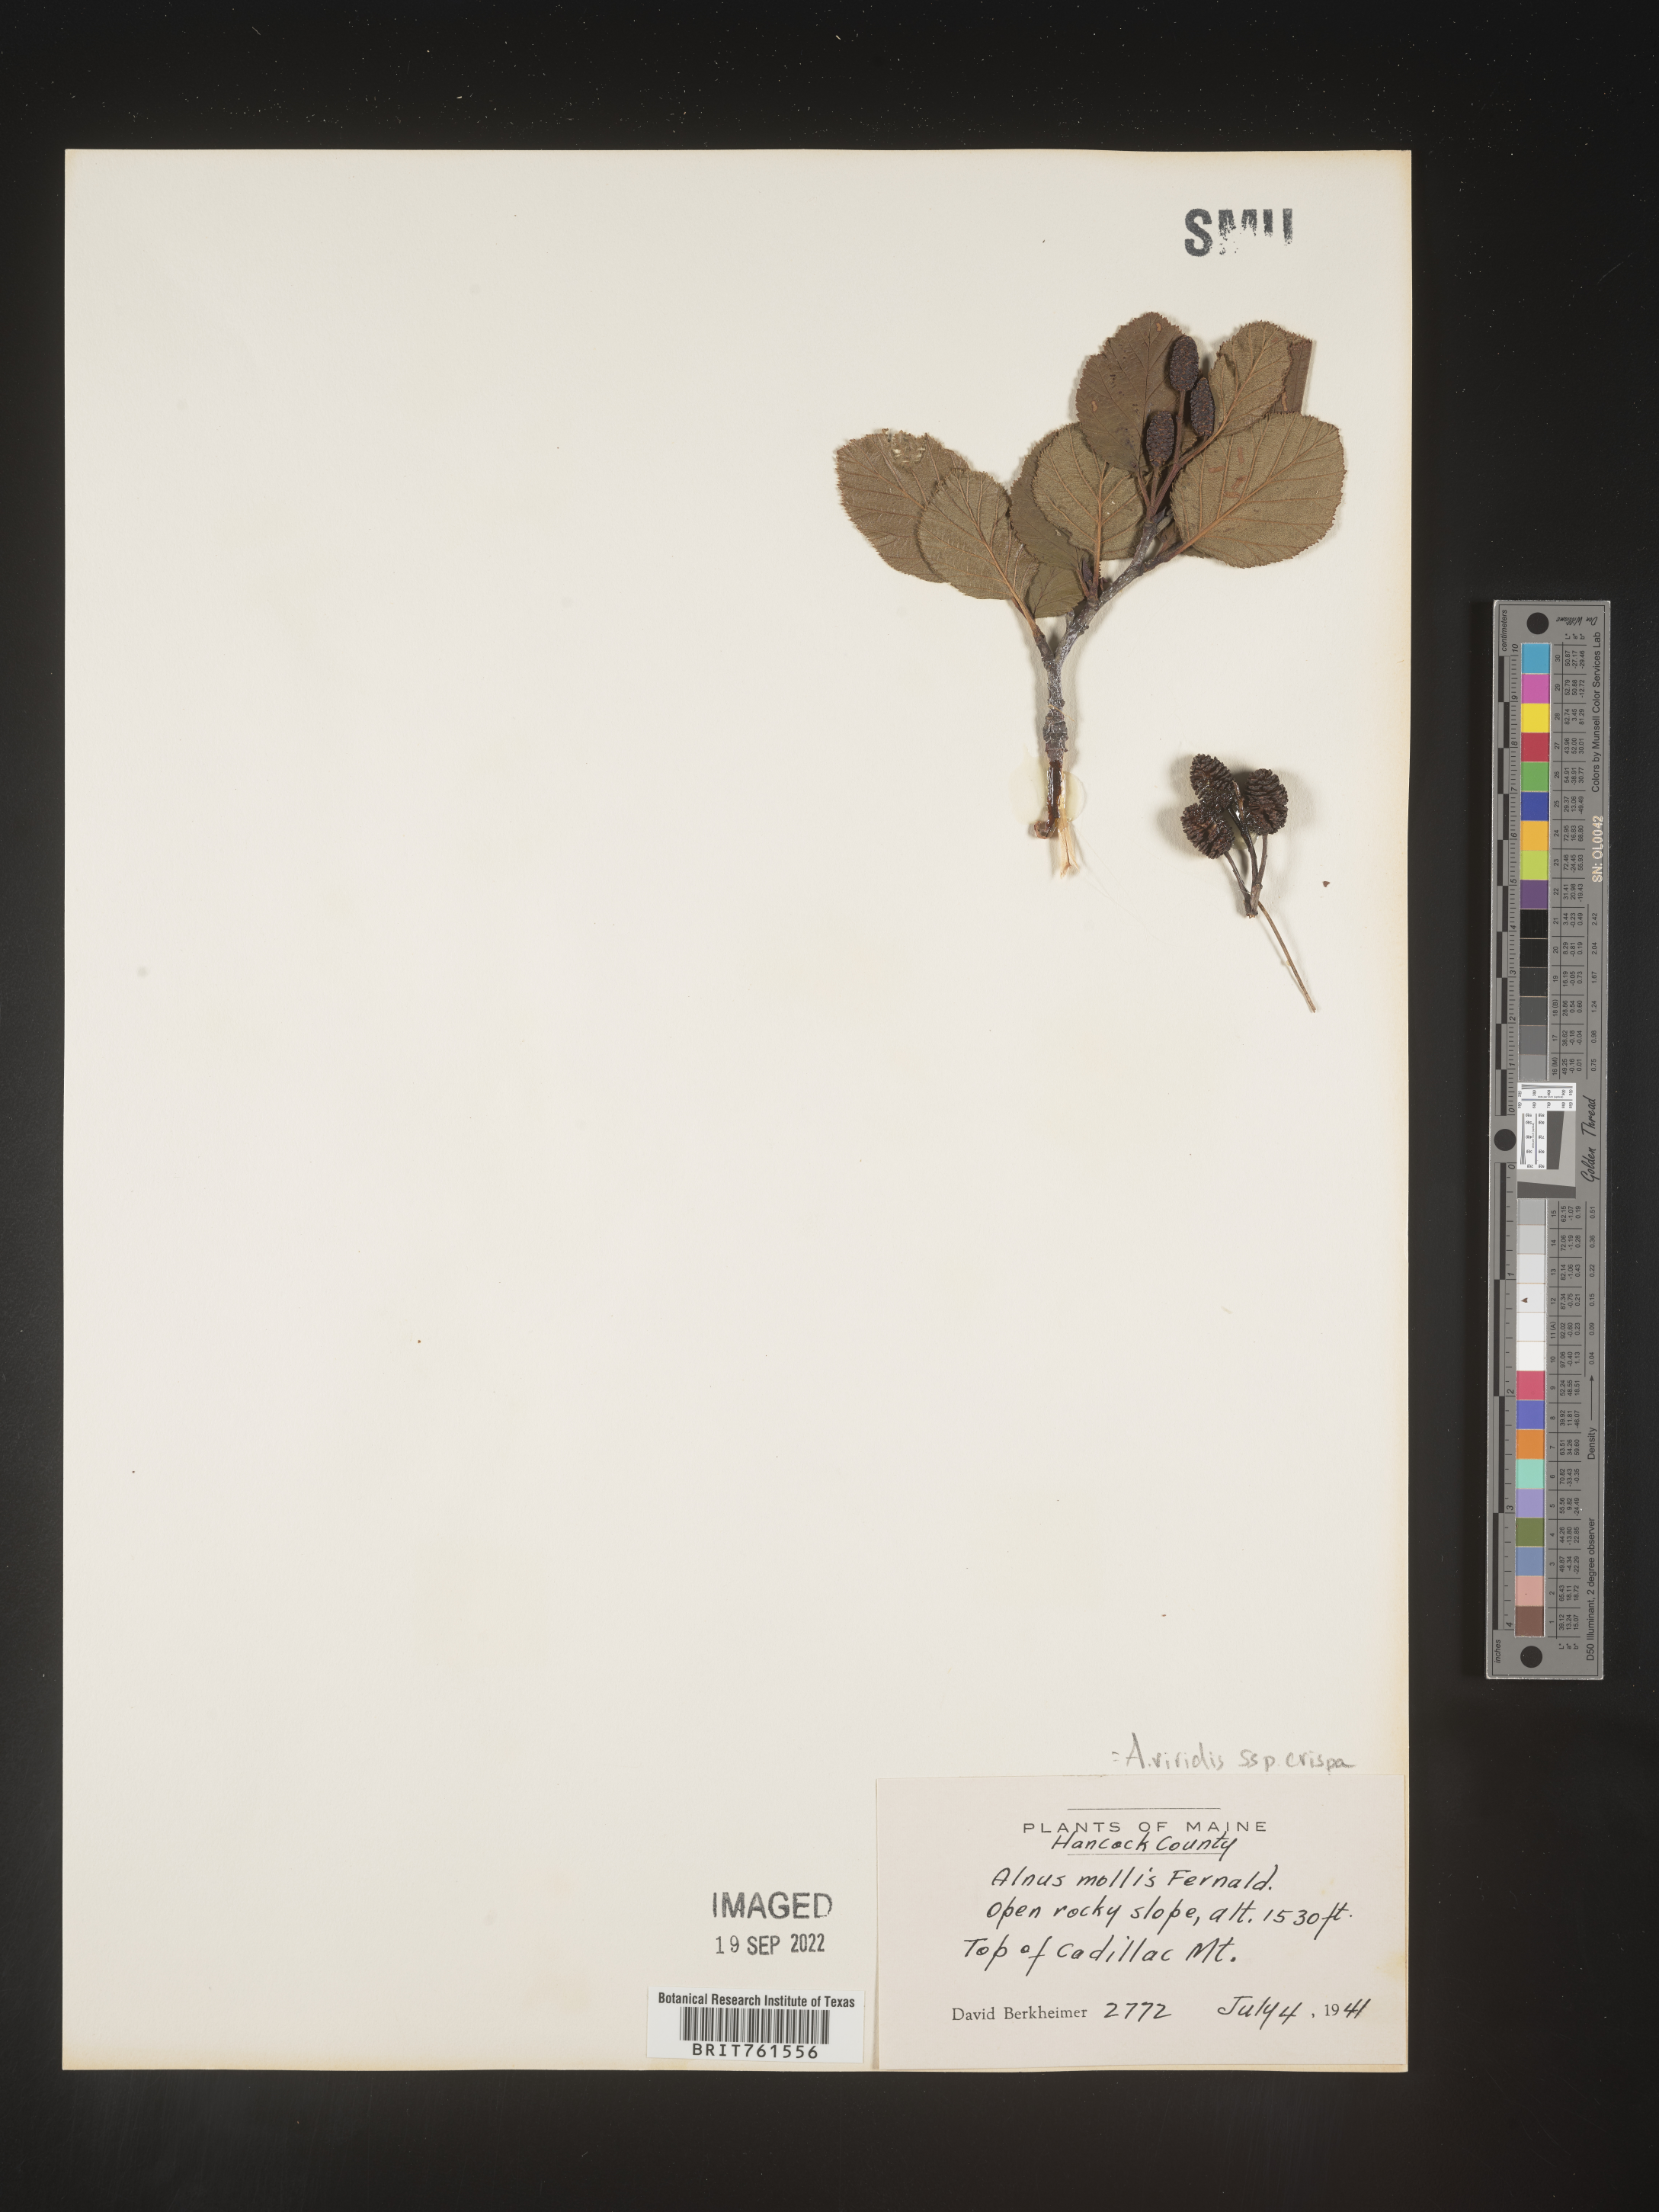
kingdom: Plantae
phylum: Tracheophyta
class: Magnoliopsida
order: Fagales
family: Betulaceae
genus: Alnus
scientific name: Alnus alnobetula
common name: Green alder
